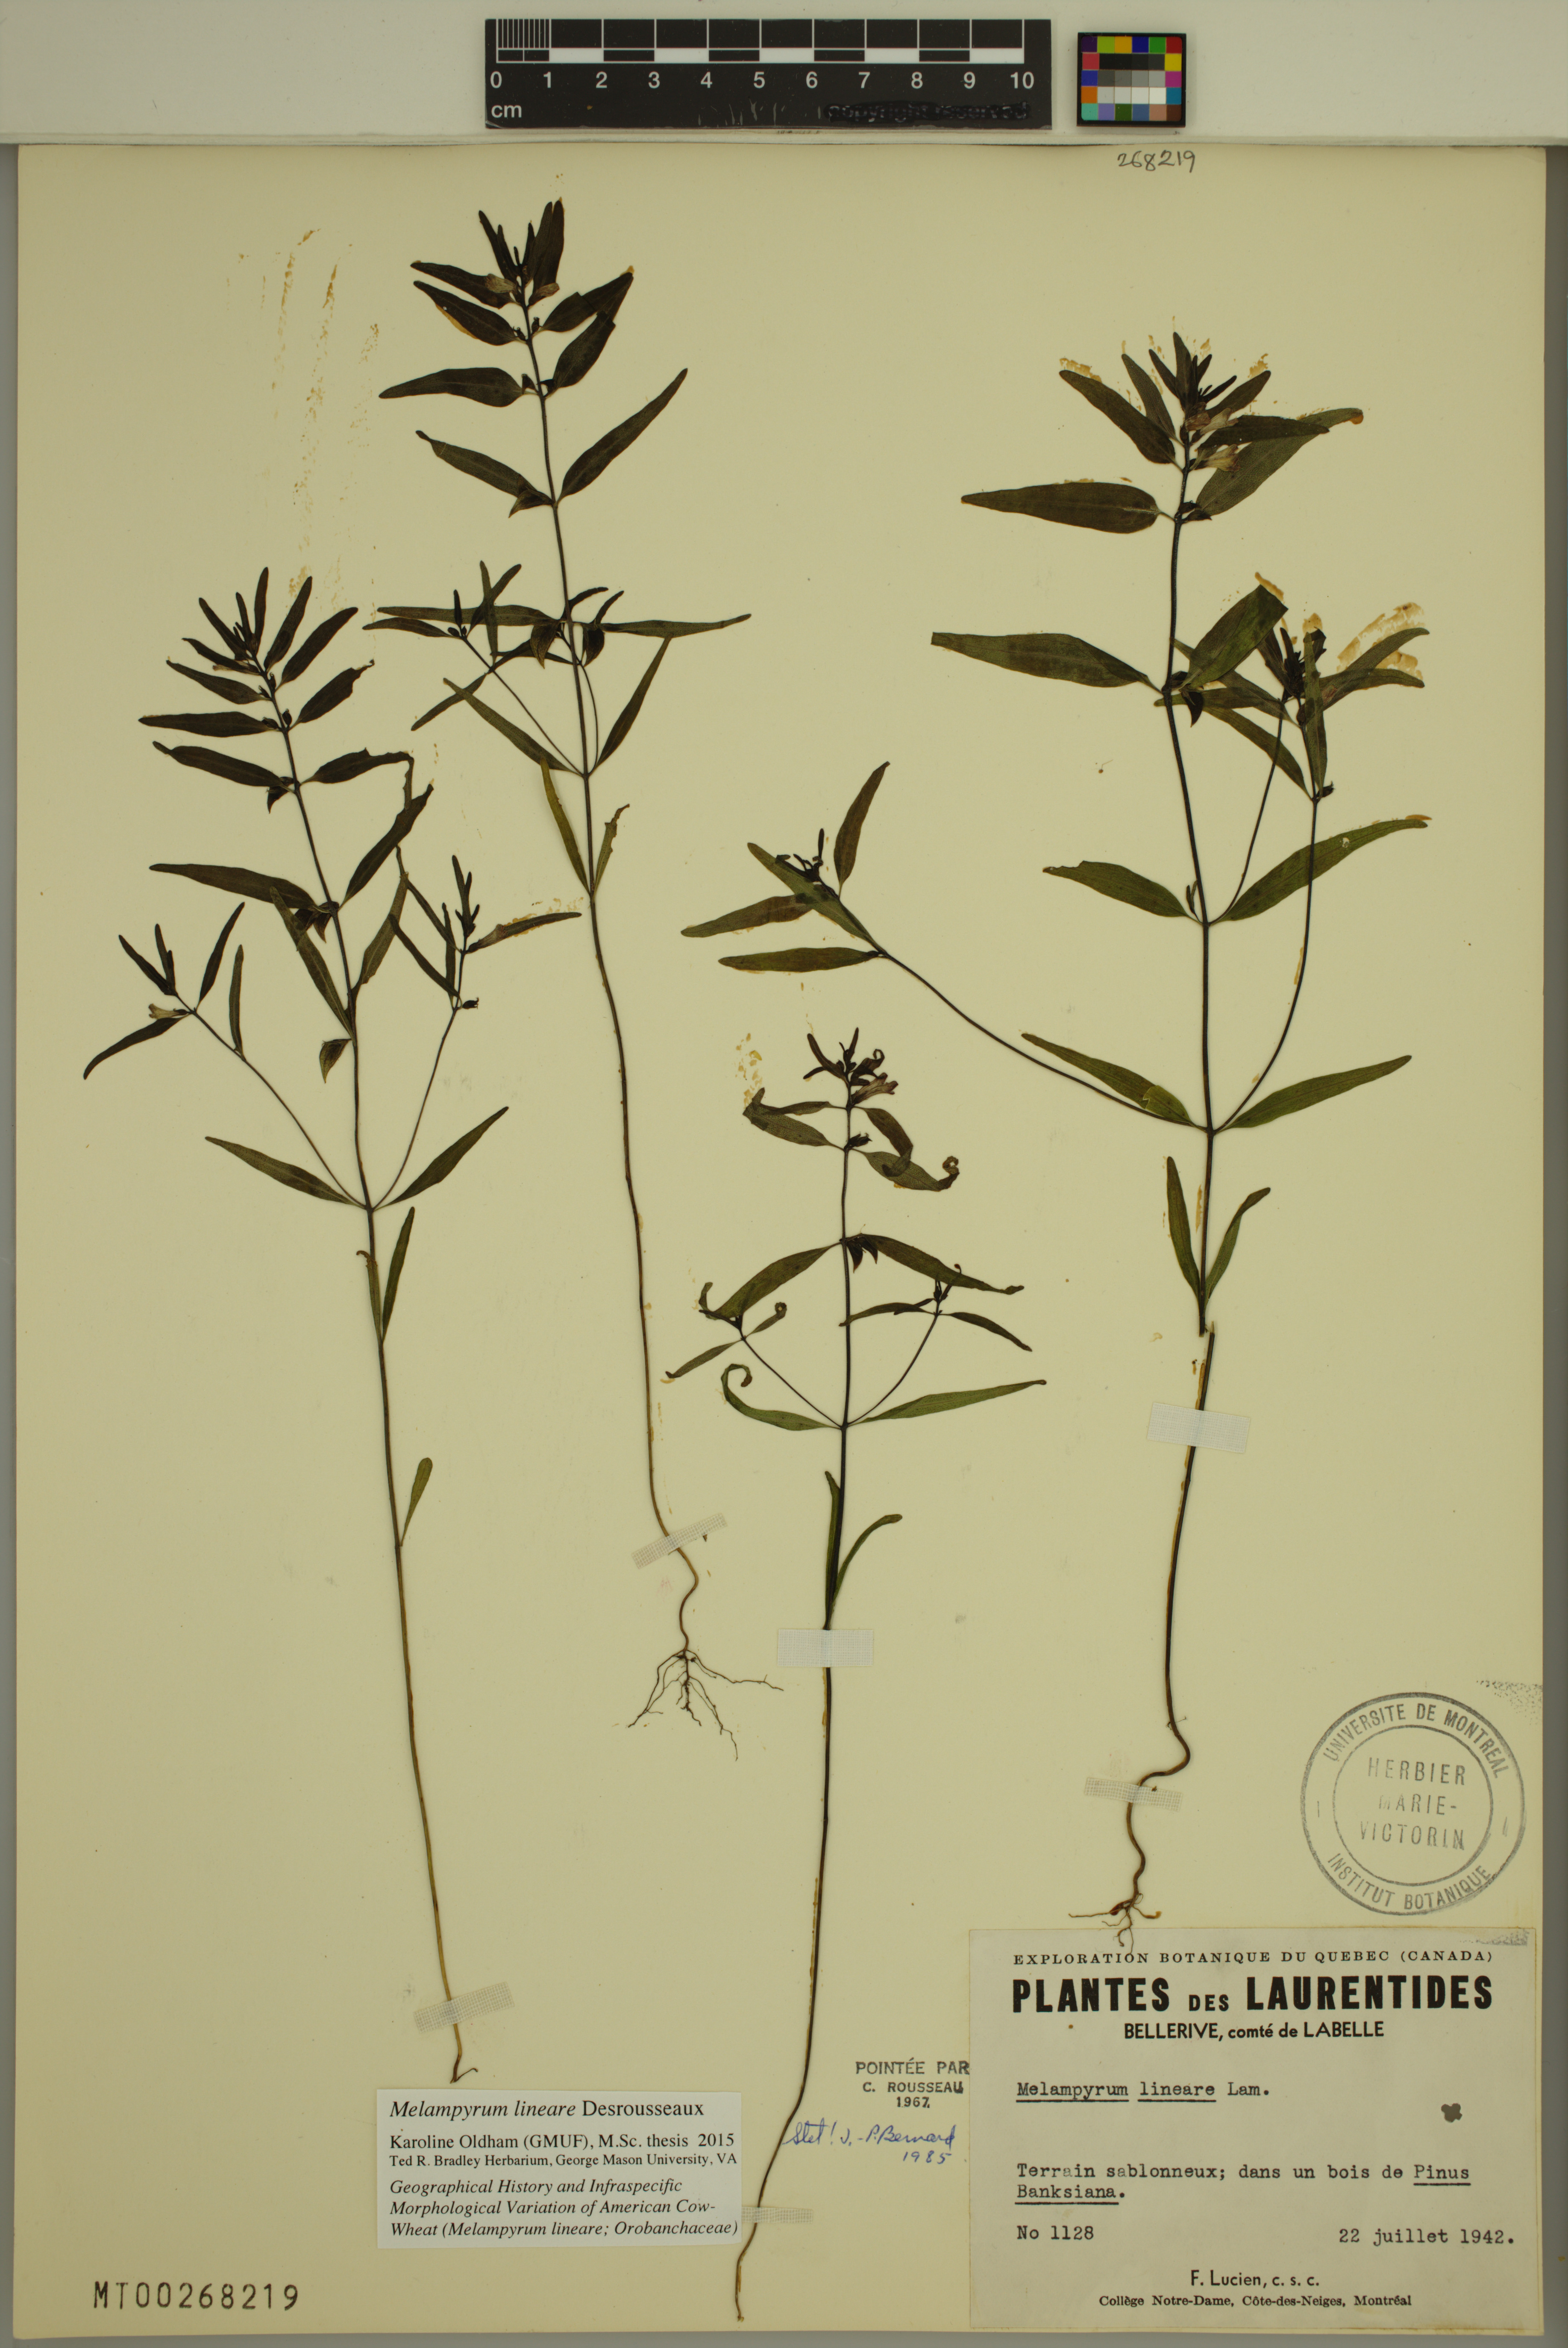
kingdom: Plantae
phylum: Tracheophyta
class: Magnoliopsida
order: Lamiales
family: Orobanchaceae
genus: Melampyrum
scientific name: Melampyrum lineare
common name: American cow-wheat
